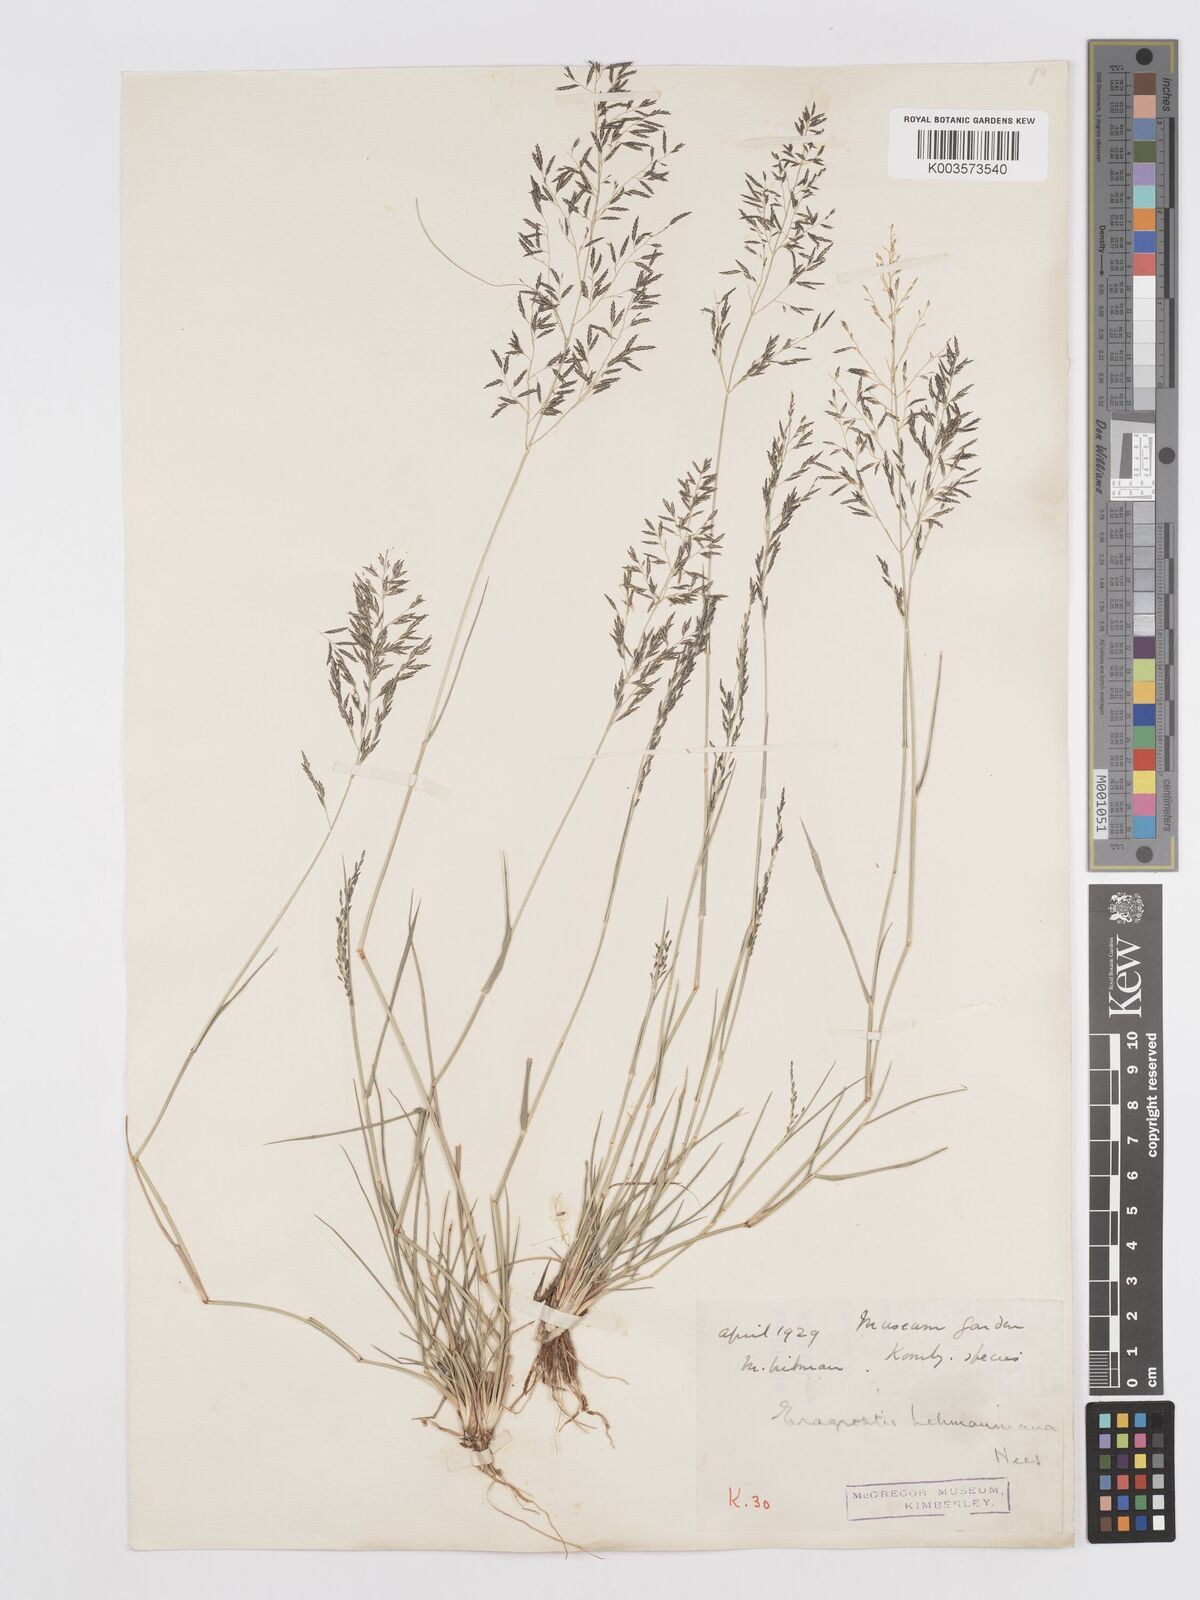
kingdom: Plantae
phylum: Tracheophyta
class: Liliopsida
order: Poales
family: Poaceae
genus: Eragrostis
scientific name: Eragrostis lehmanniana
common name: Lehmann lovegrass
